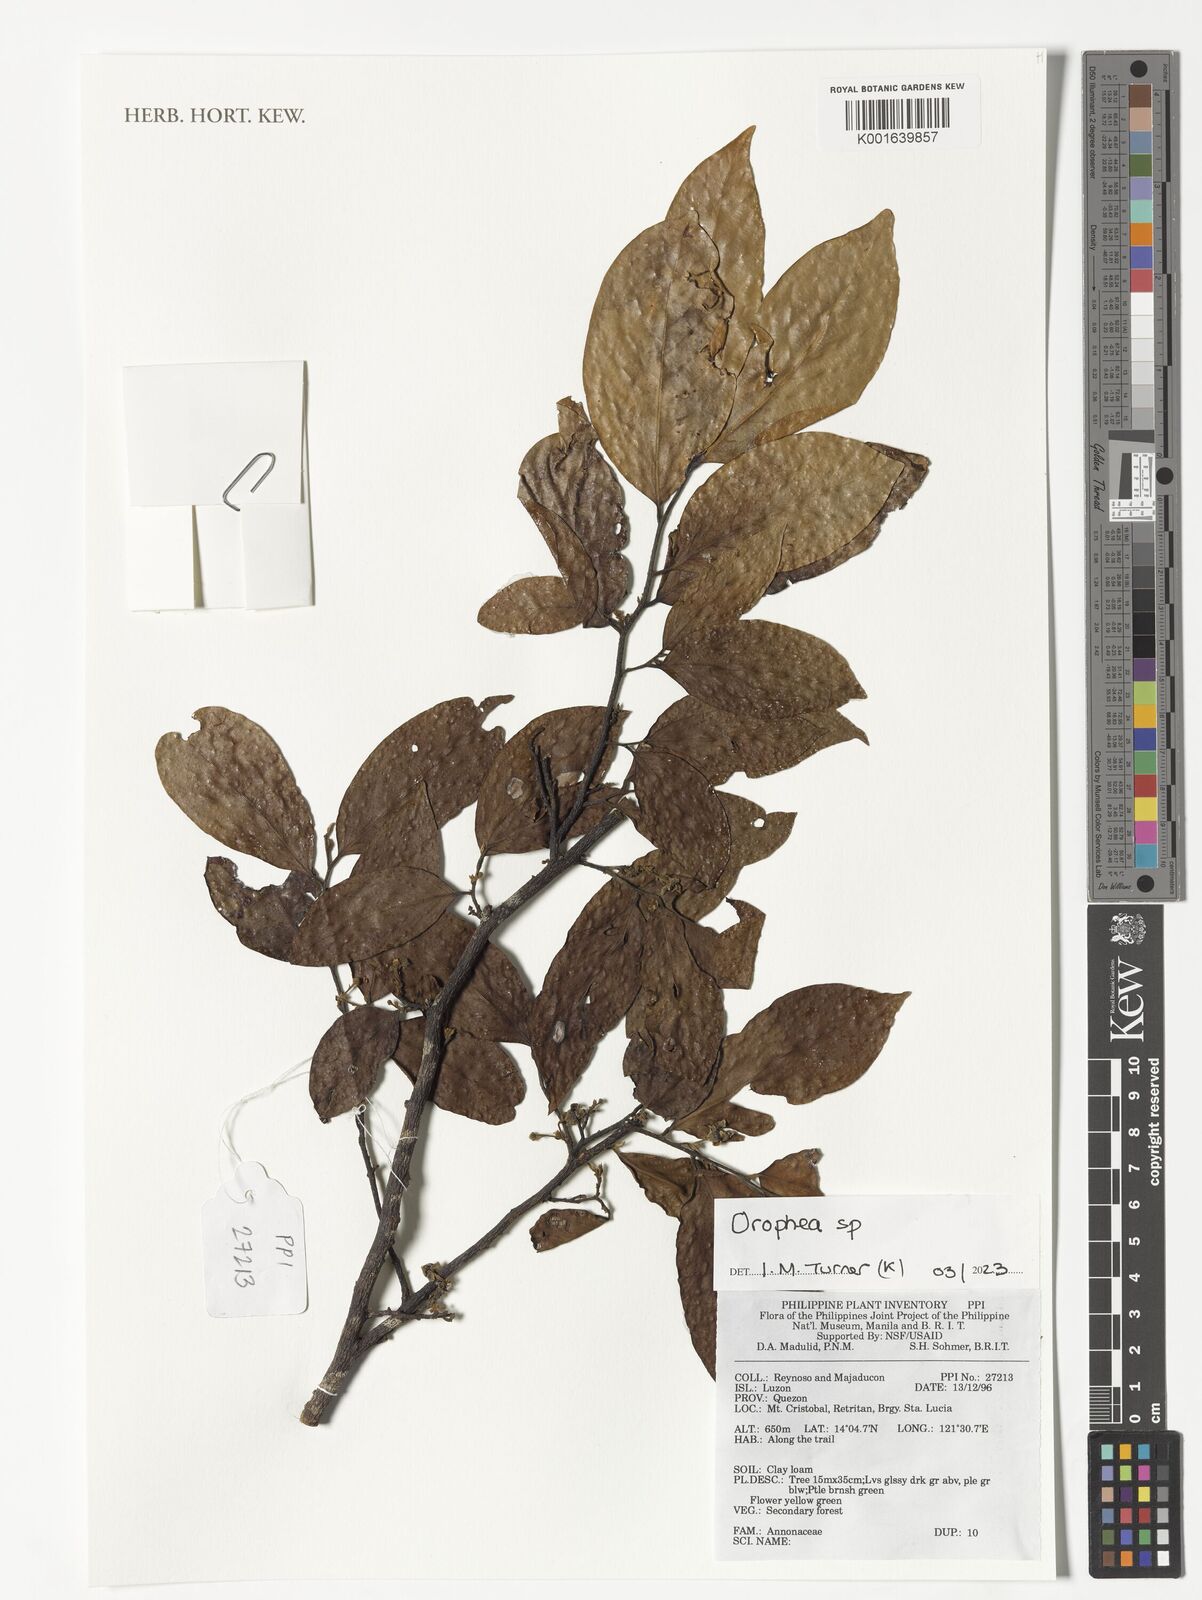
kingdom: Plantae
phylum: Tracheophyta
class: Magnoliopsida
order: Magnoliales
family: Annonaceae
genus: Orophea
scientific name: Orophea
